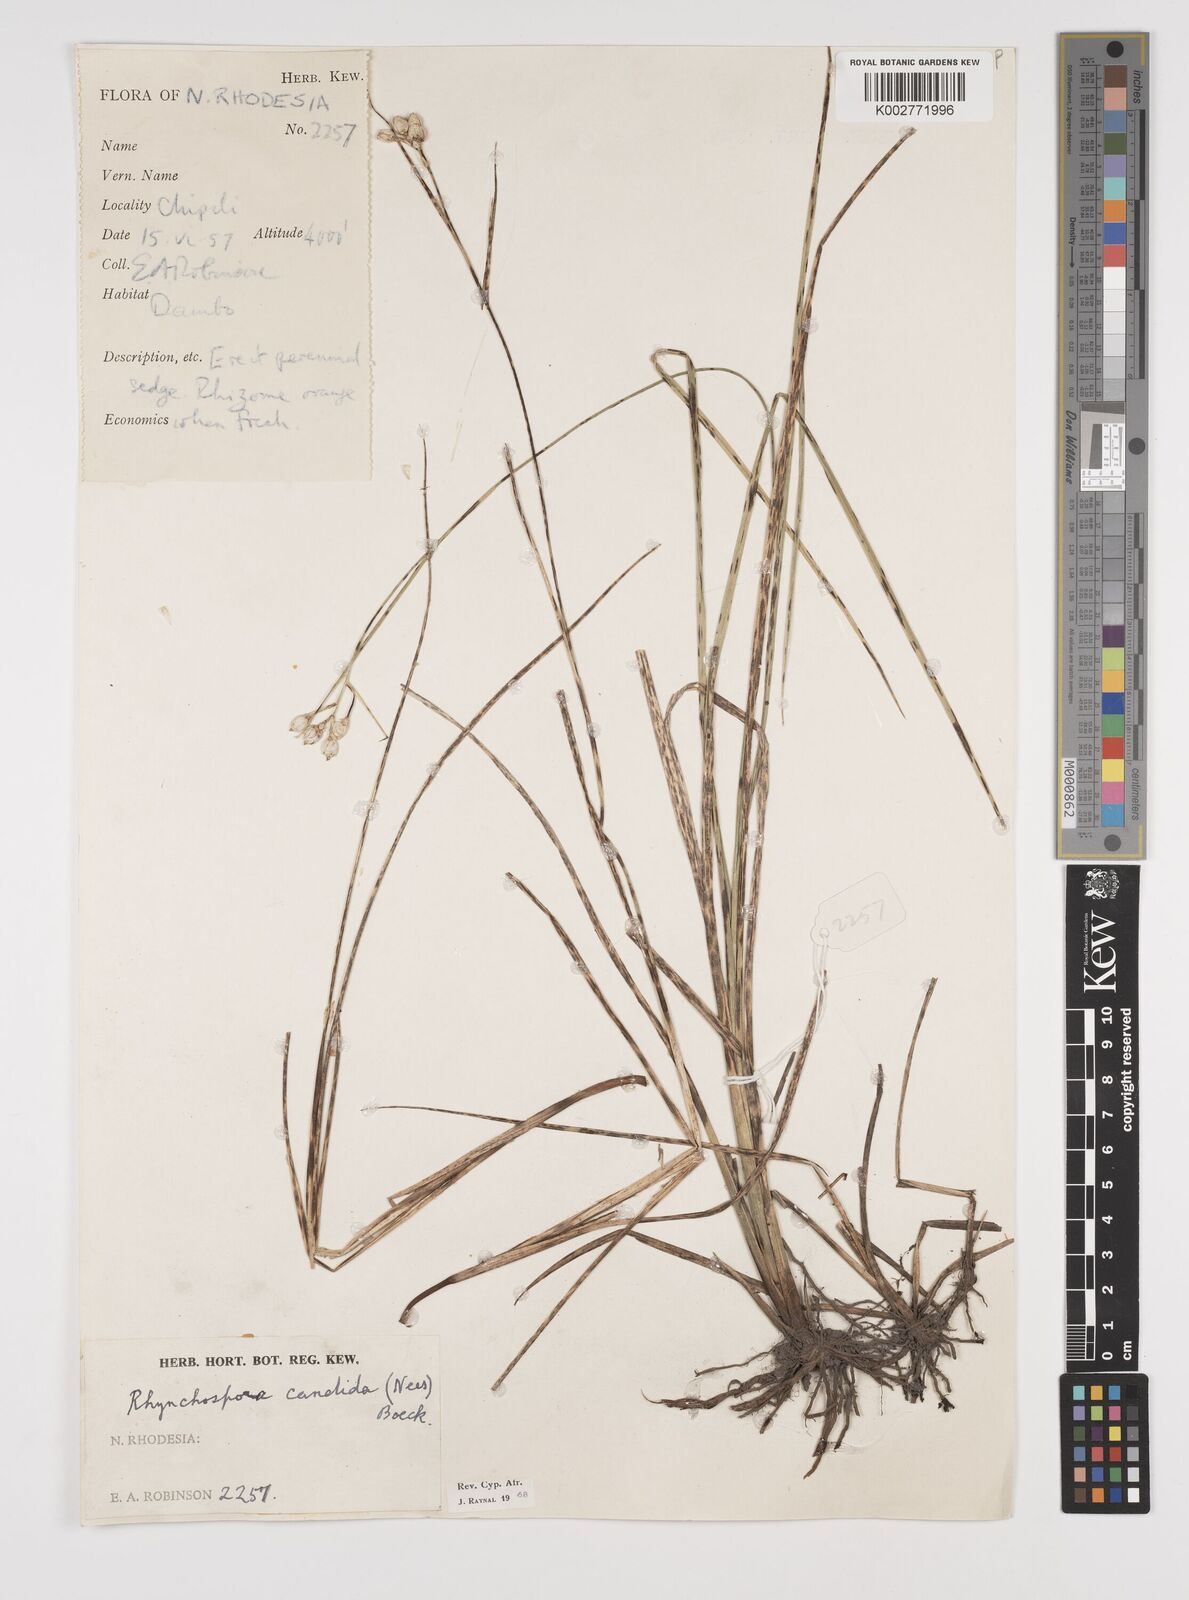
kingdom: Plantae
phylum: Tracheophyta
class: Liliopsida
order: Poales
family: Cyperaceae
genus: Rhynchospora
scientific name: Rhynchospora candida
